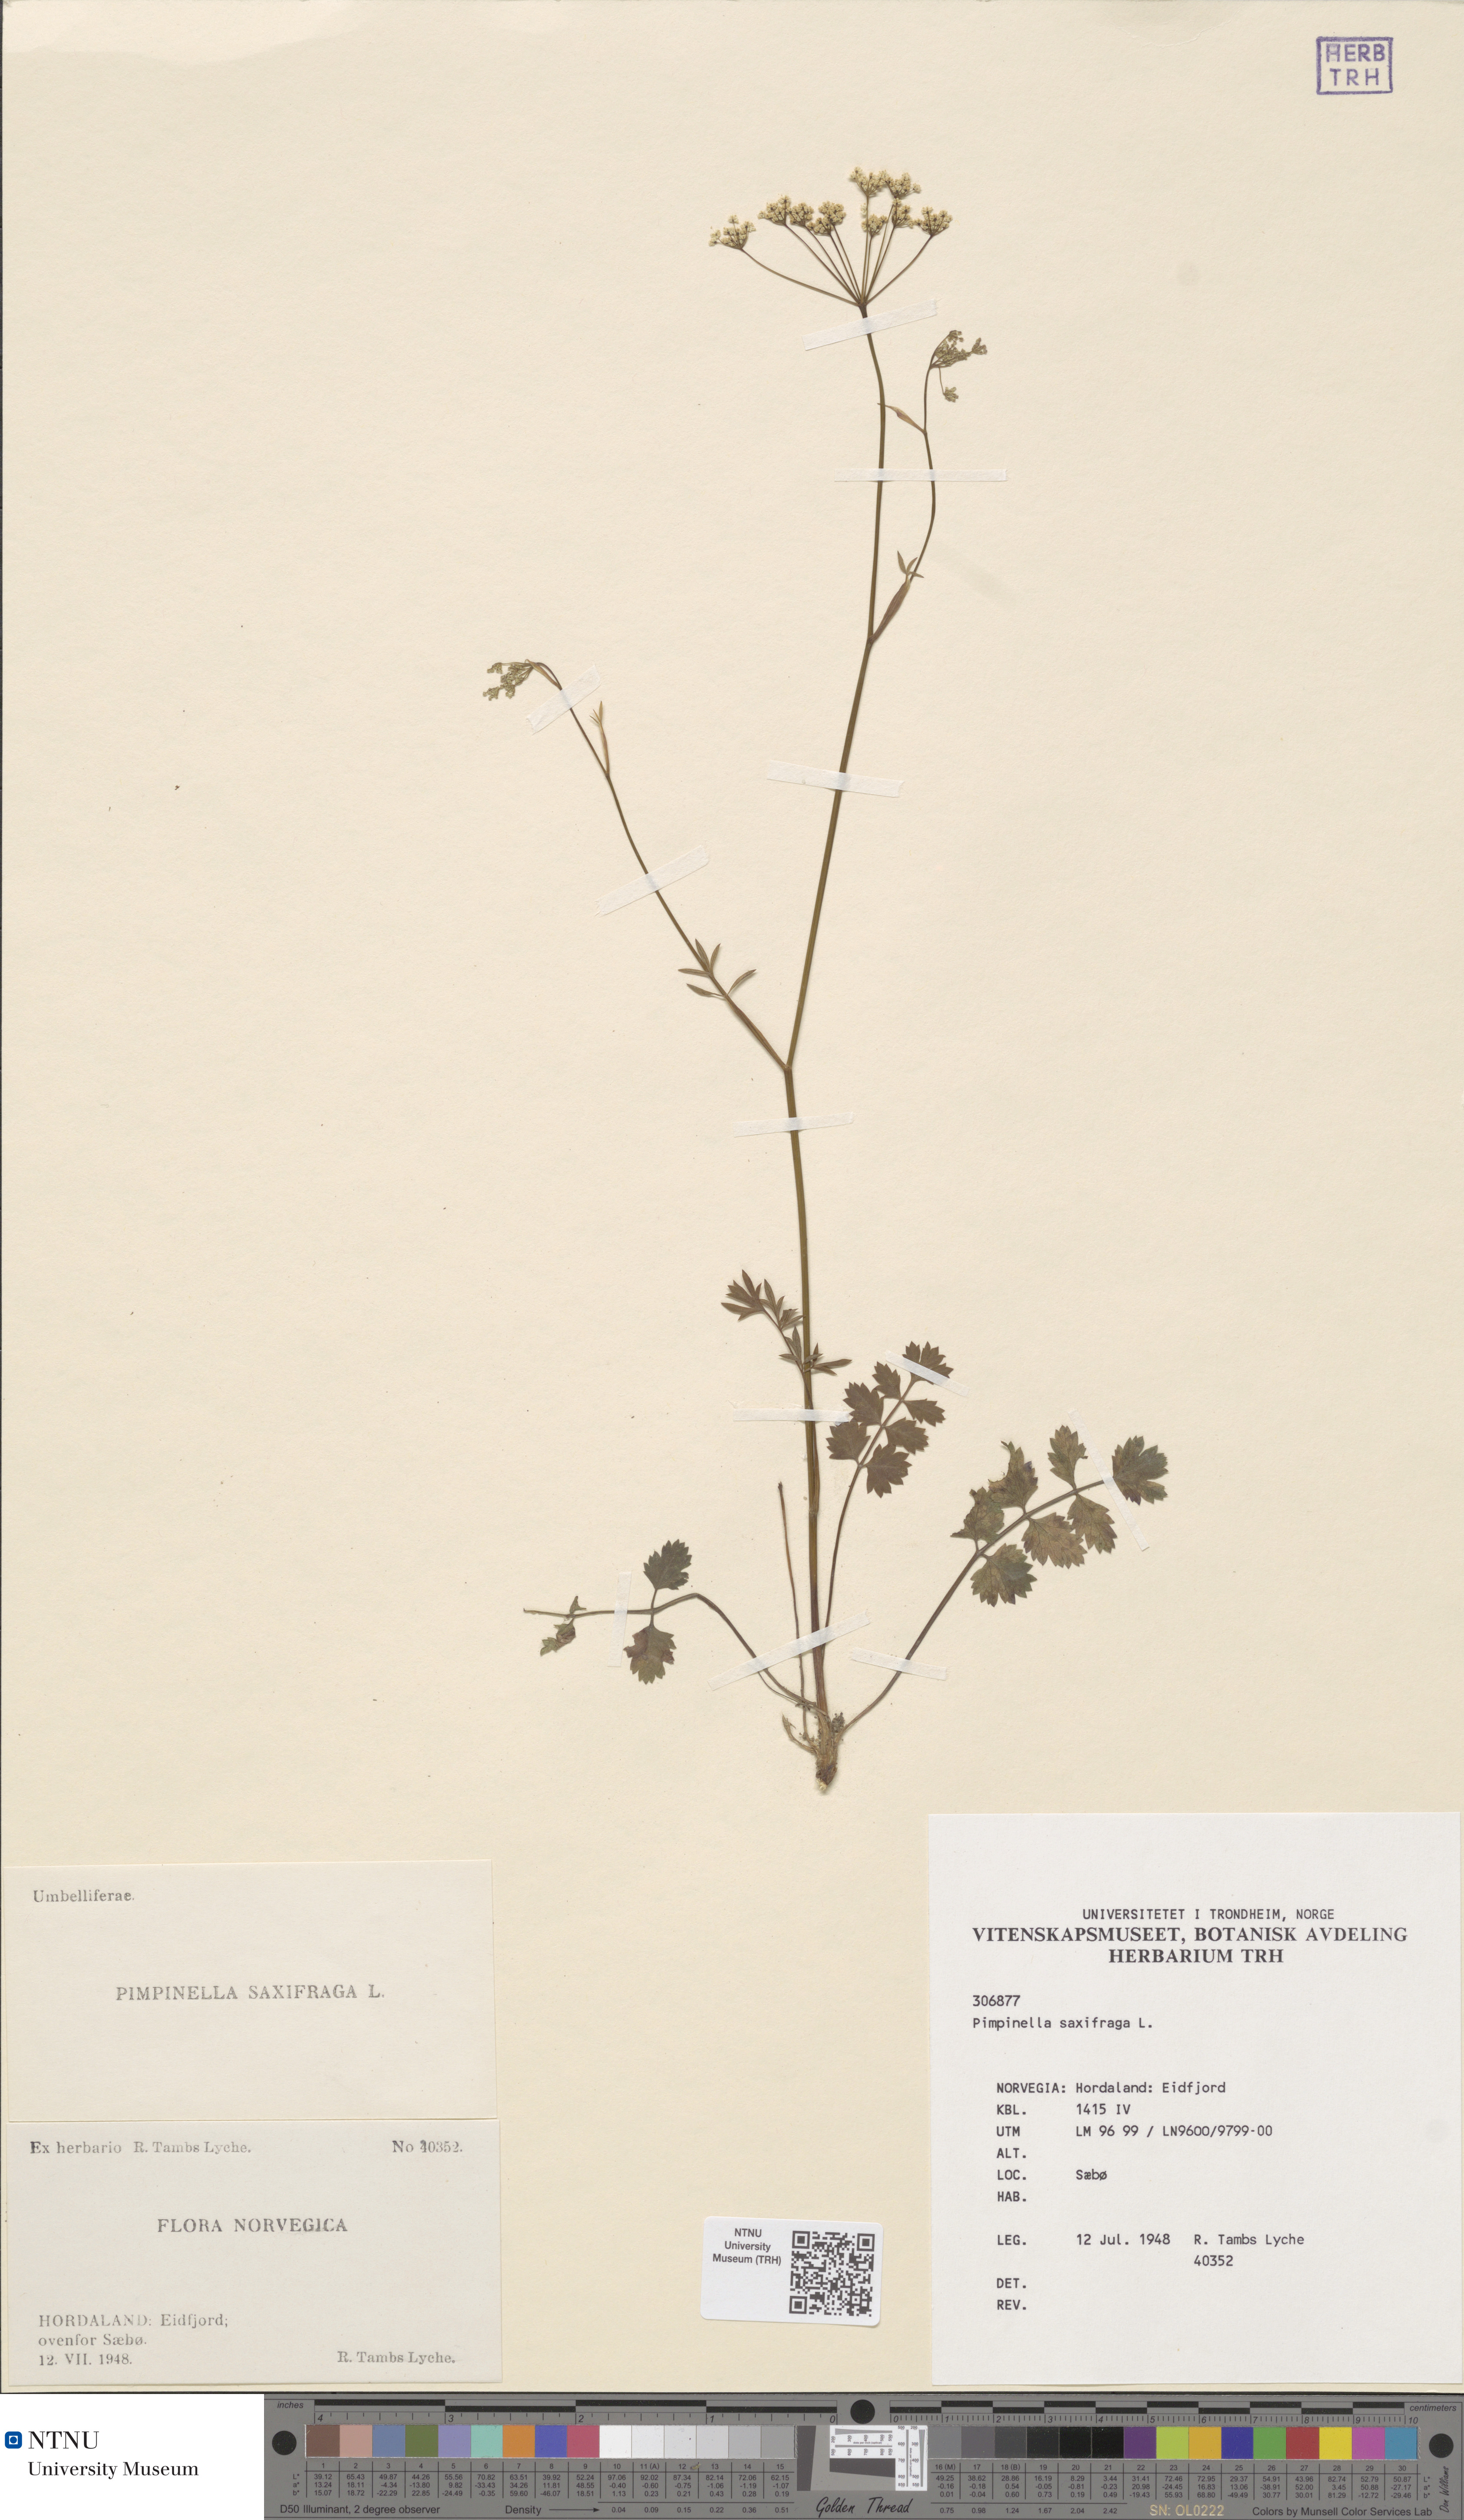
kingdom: Plantae
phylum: Tracheophyta
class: Magnoliopsida
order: Apiales
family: Apiaceae
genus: Pimpinella
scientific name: Pimpinella saxifraga
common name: Burnet-saxifrage
